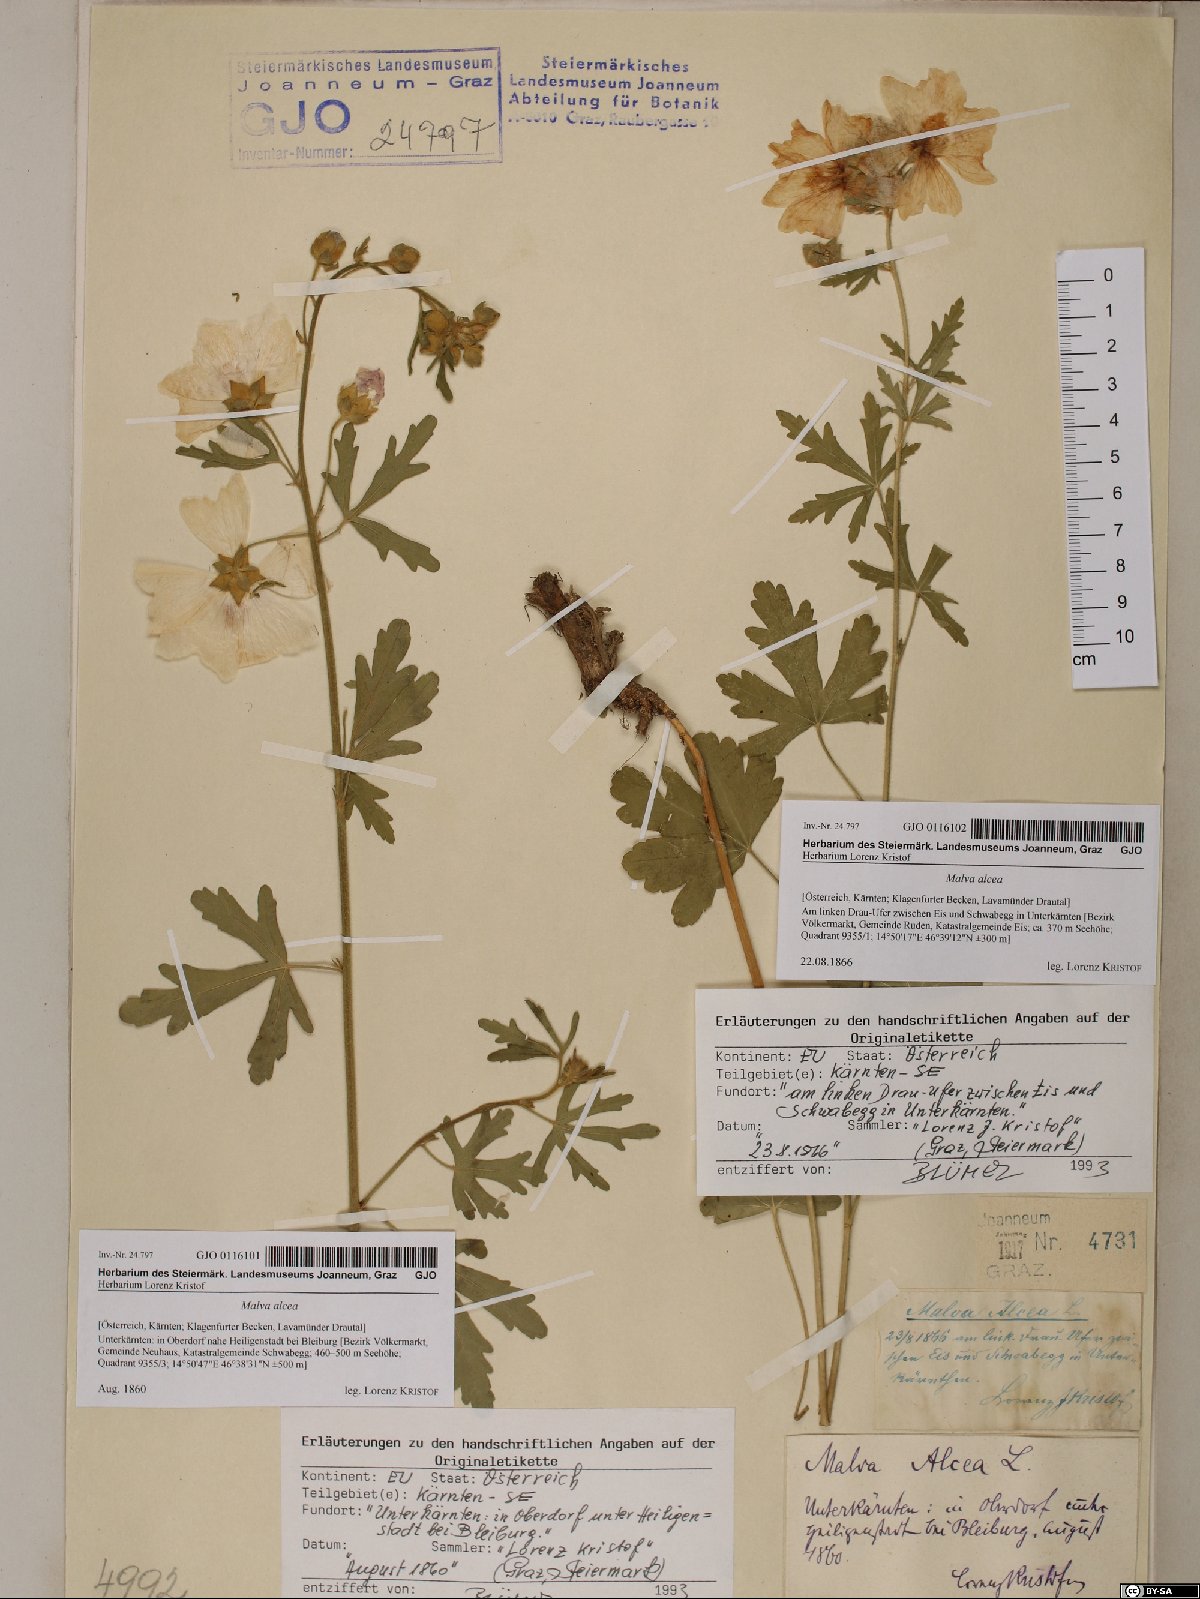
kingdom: Plantae
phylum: Tracheophyta
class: Magnoliopsida
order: Malvales
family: Malvaceae
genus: Malva
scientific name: Malva alcea
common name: Greater musk-mallow
